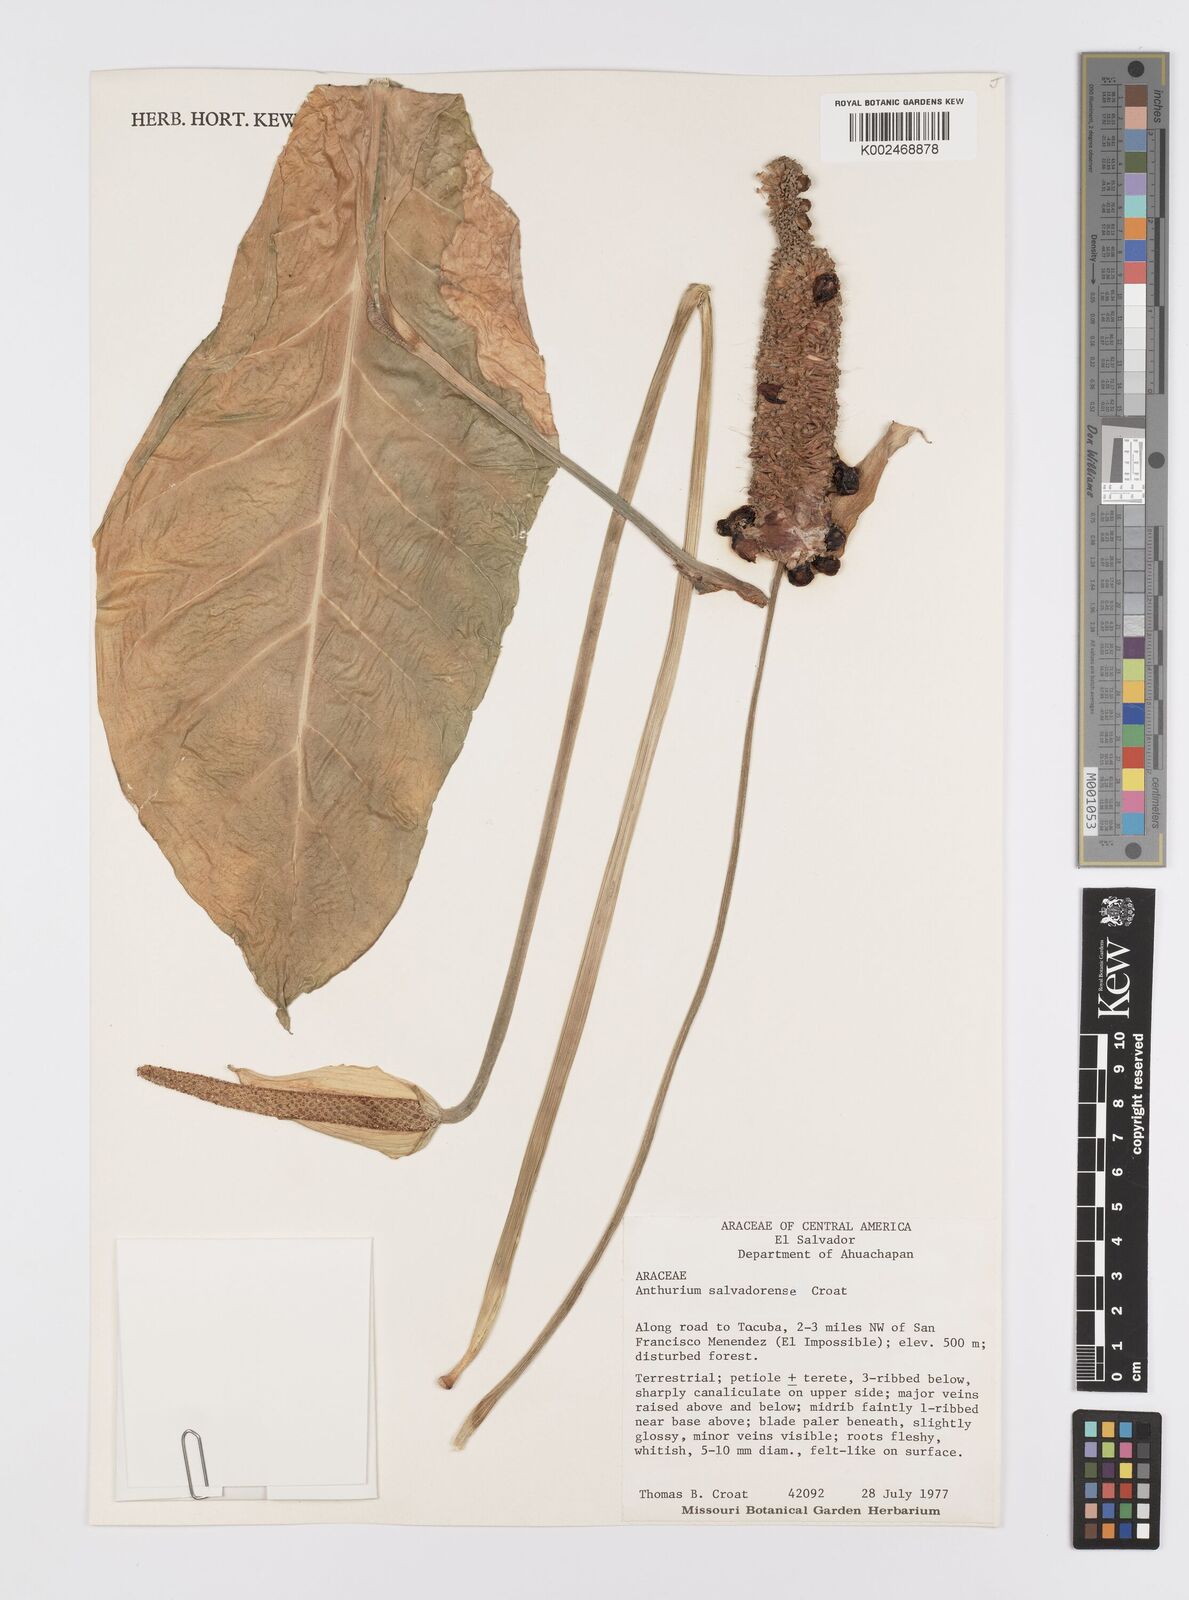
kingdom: Plantae
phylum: Tracheophyta
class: Liliopsida
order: Alismatales
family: Araceae
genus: Anthurium
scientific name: Anthurium salvadorense
